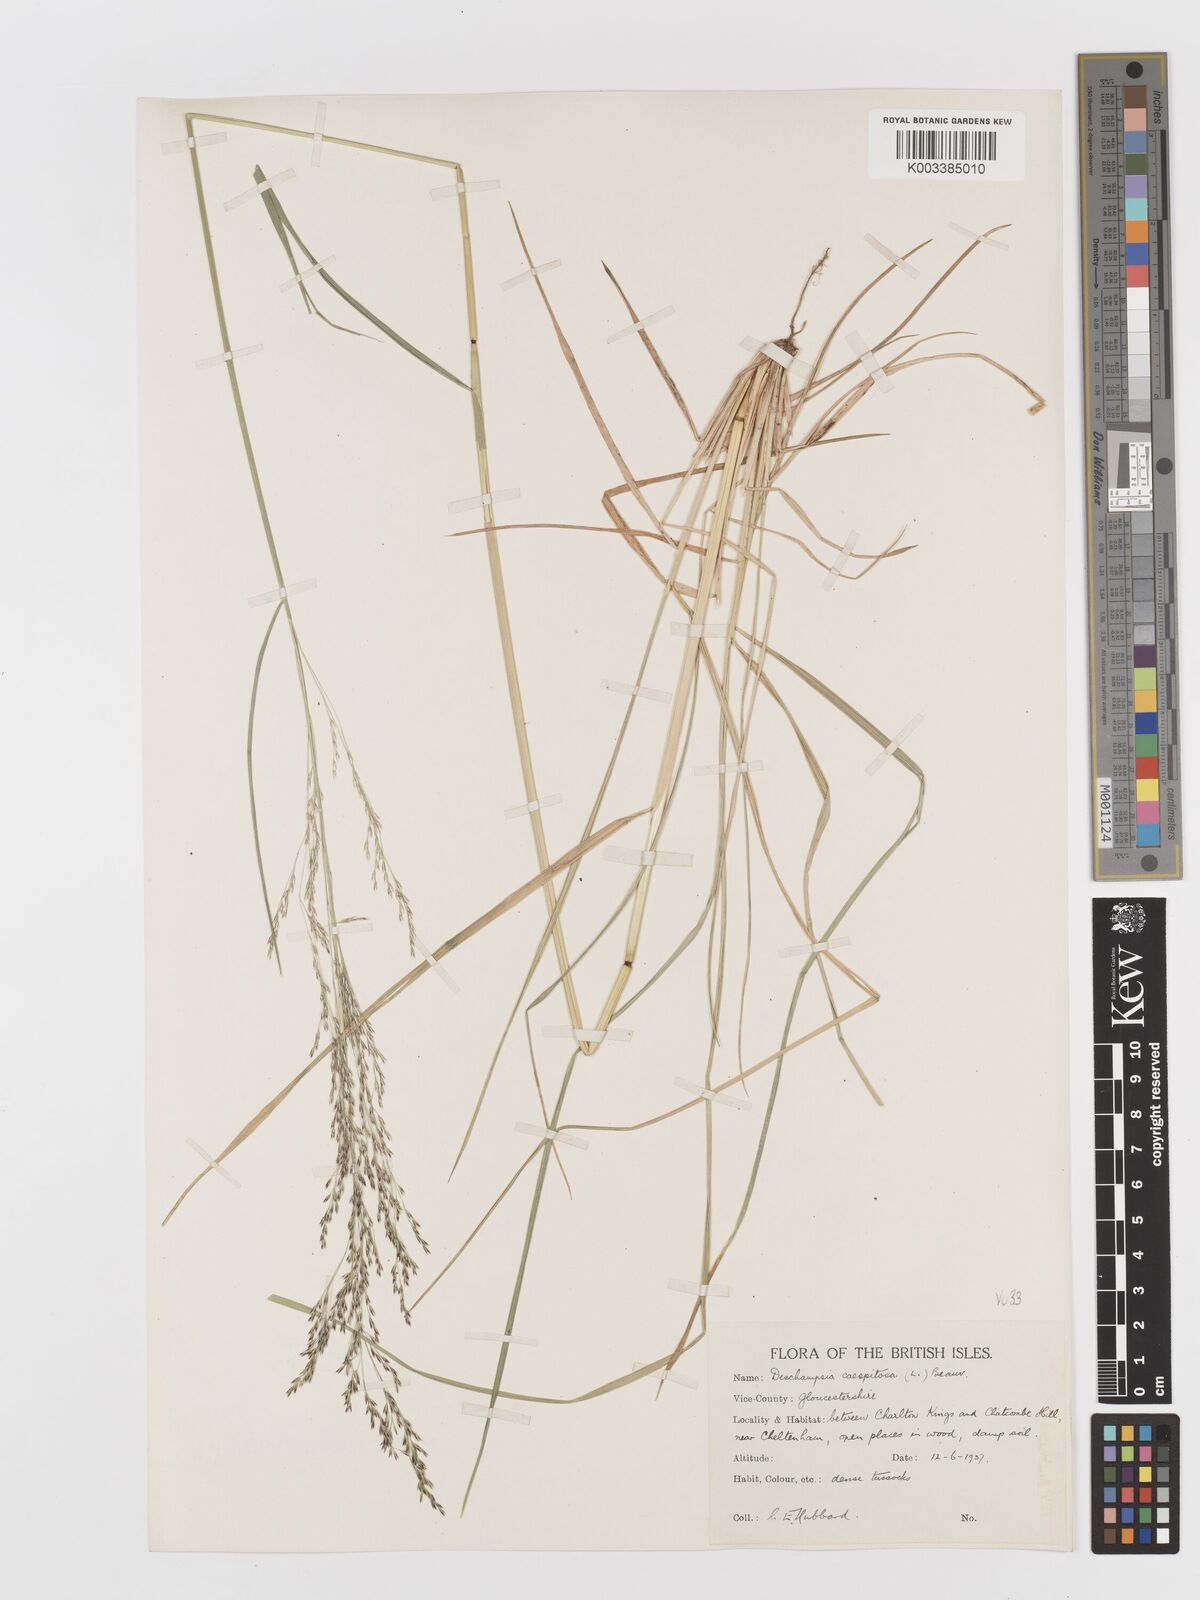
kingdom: Plantae
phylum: Tracheophyta
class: Liliopsida
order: Poales
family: Poaceae
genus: Deschampsia
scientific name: Deschampsia cespitosa
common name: Tufted hair-grass
